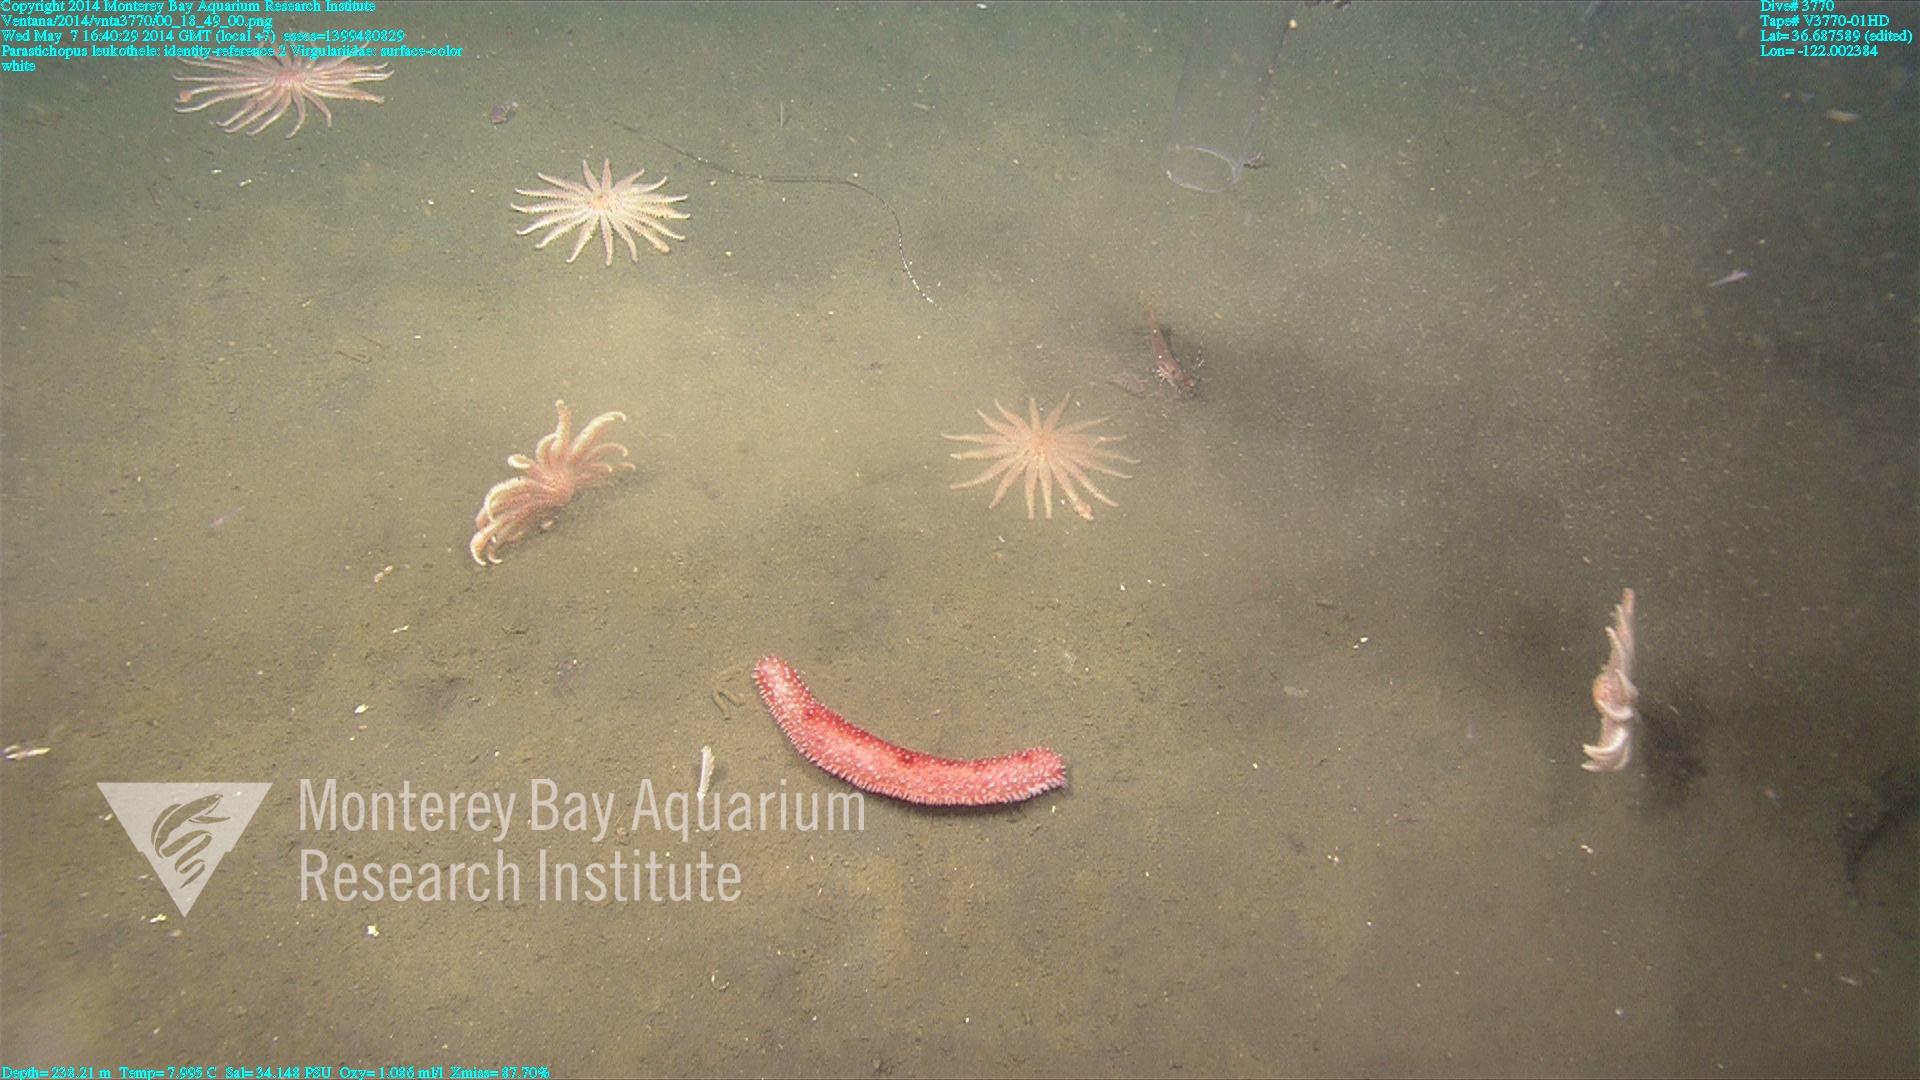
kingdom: Animalia
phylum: Cnidaria
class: Anthozoa
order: Scleralcyonacea
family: Virgulariidae
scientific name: Virgulariidae
